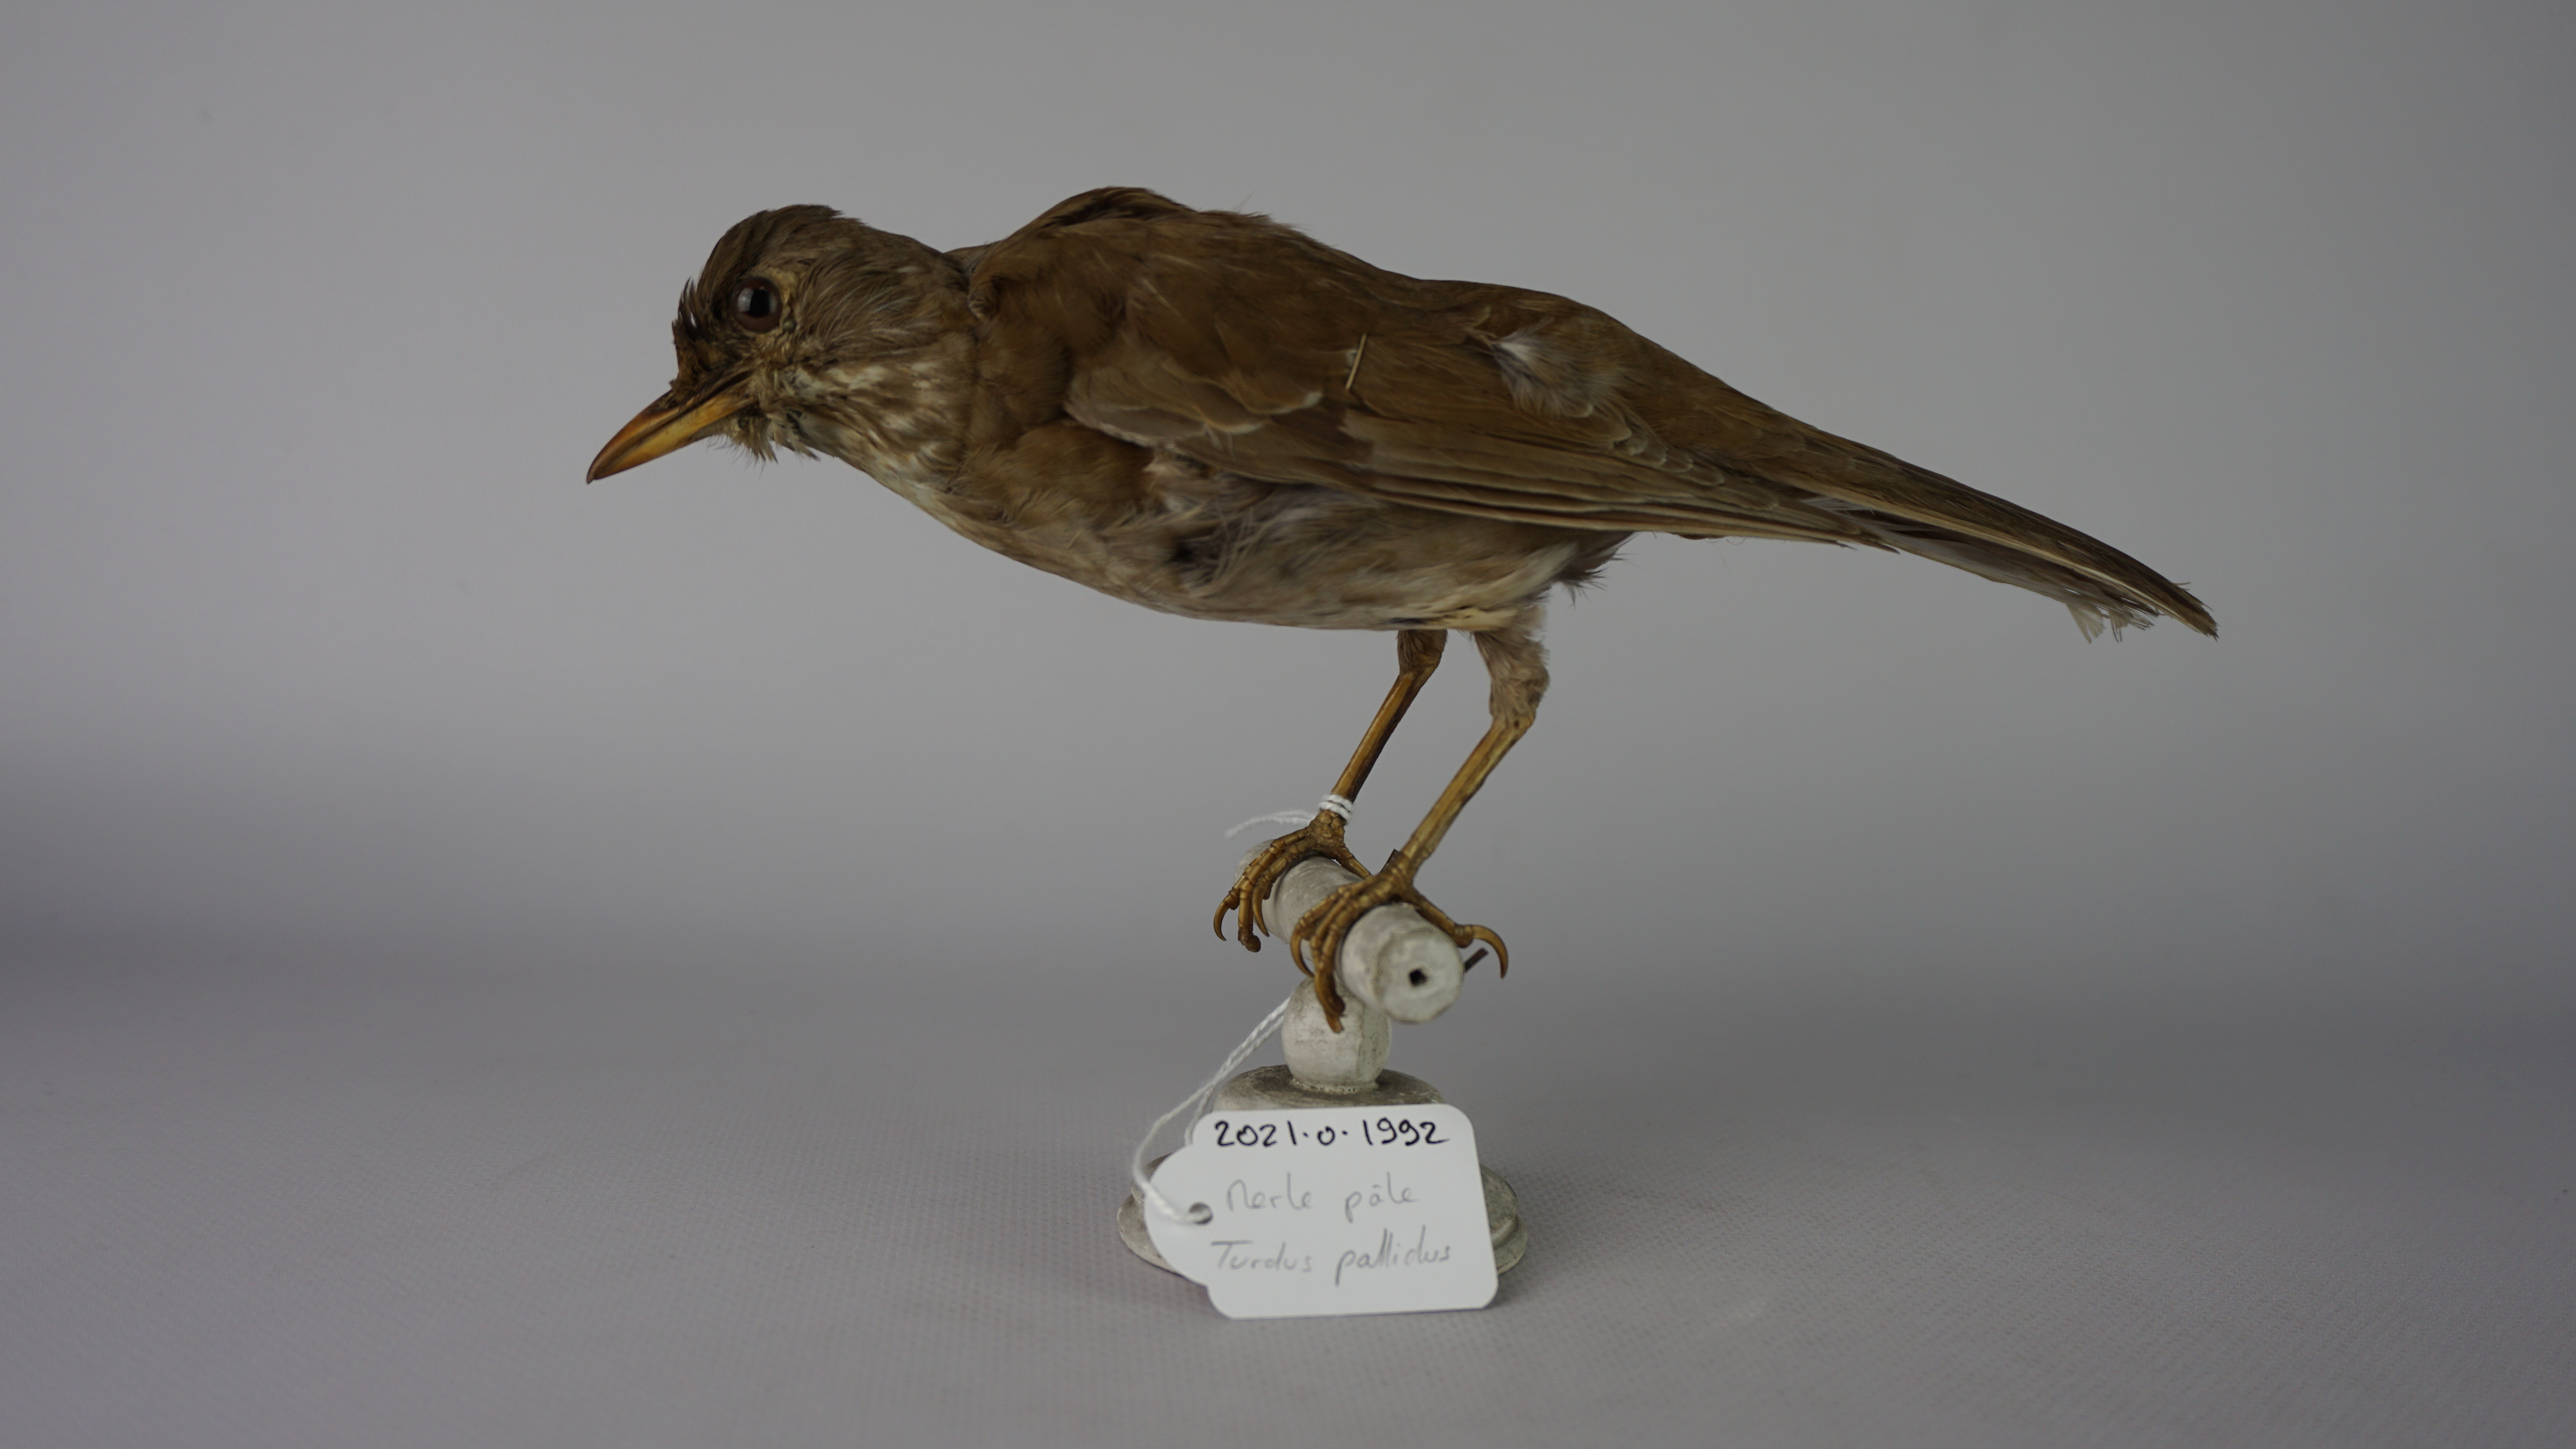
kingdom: Animalia
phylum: Chordata
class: Aves
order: Passeriformes
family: Turdidae
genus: Turdus
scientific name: Turdus pallidus
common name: Pale thrush
